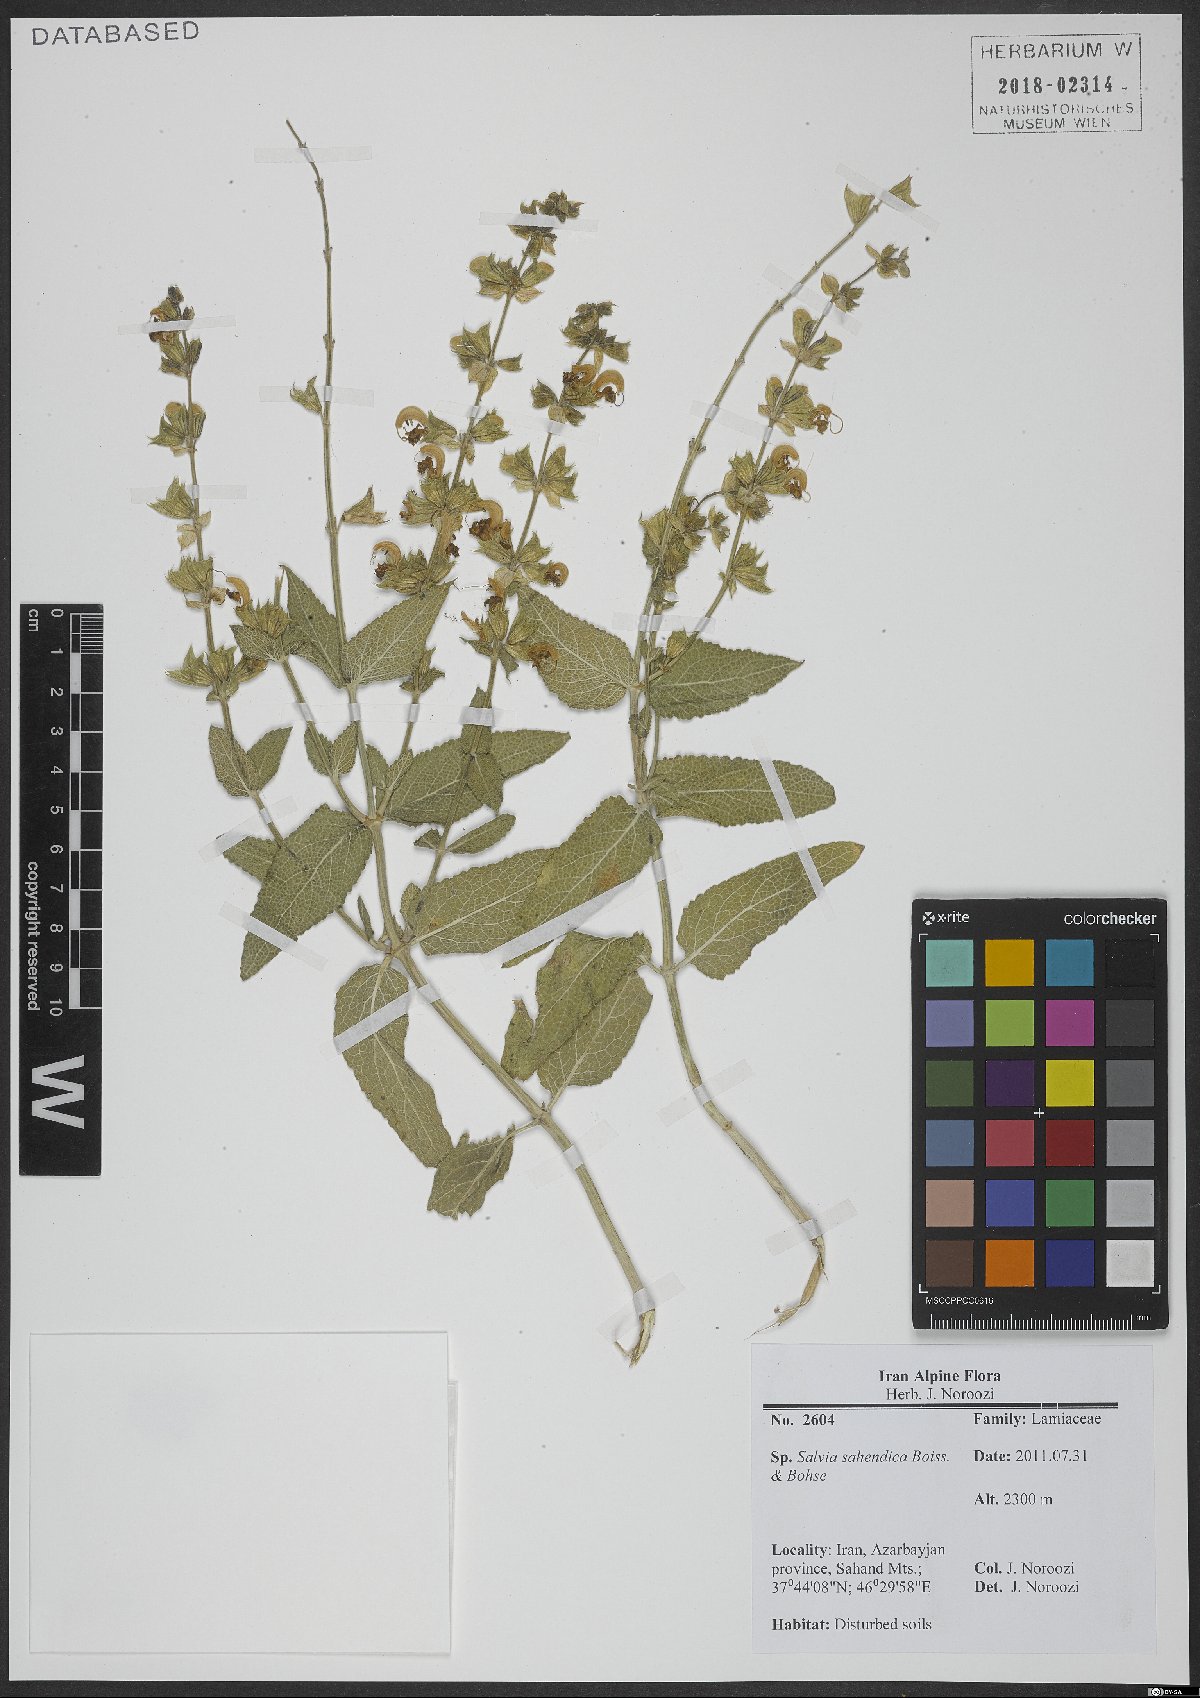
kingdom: Plantae
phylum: Tracheophyta
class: Magnoliopsida
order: Lamiales
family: Lamiaceae
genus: Salvia
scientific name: Salvia sahendica
